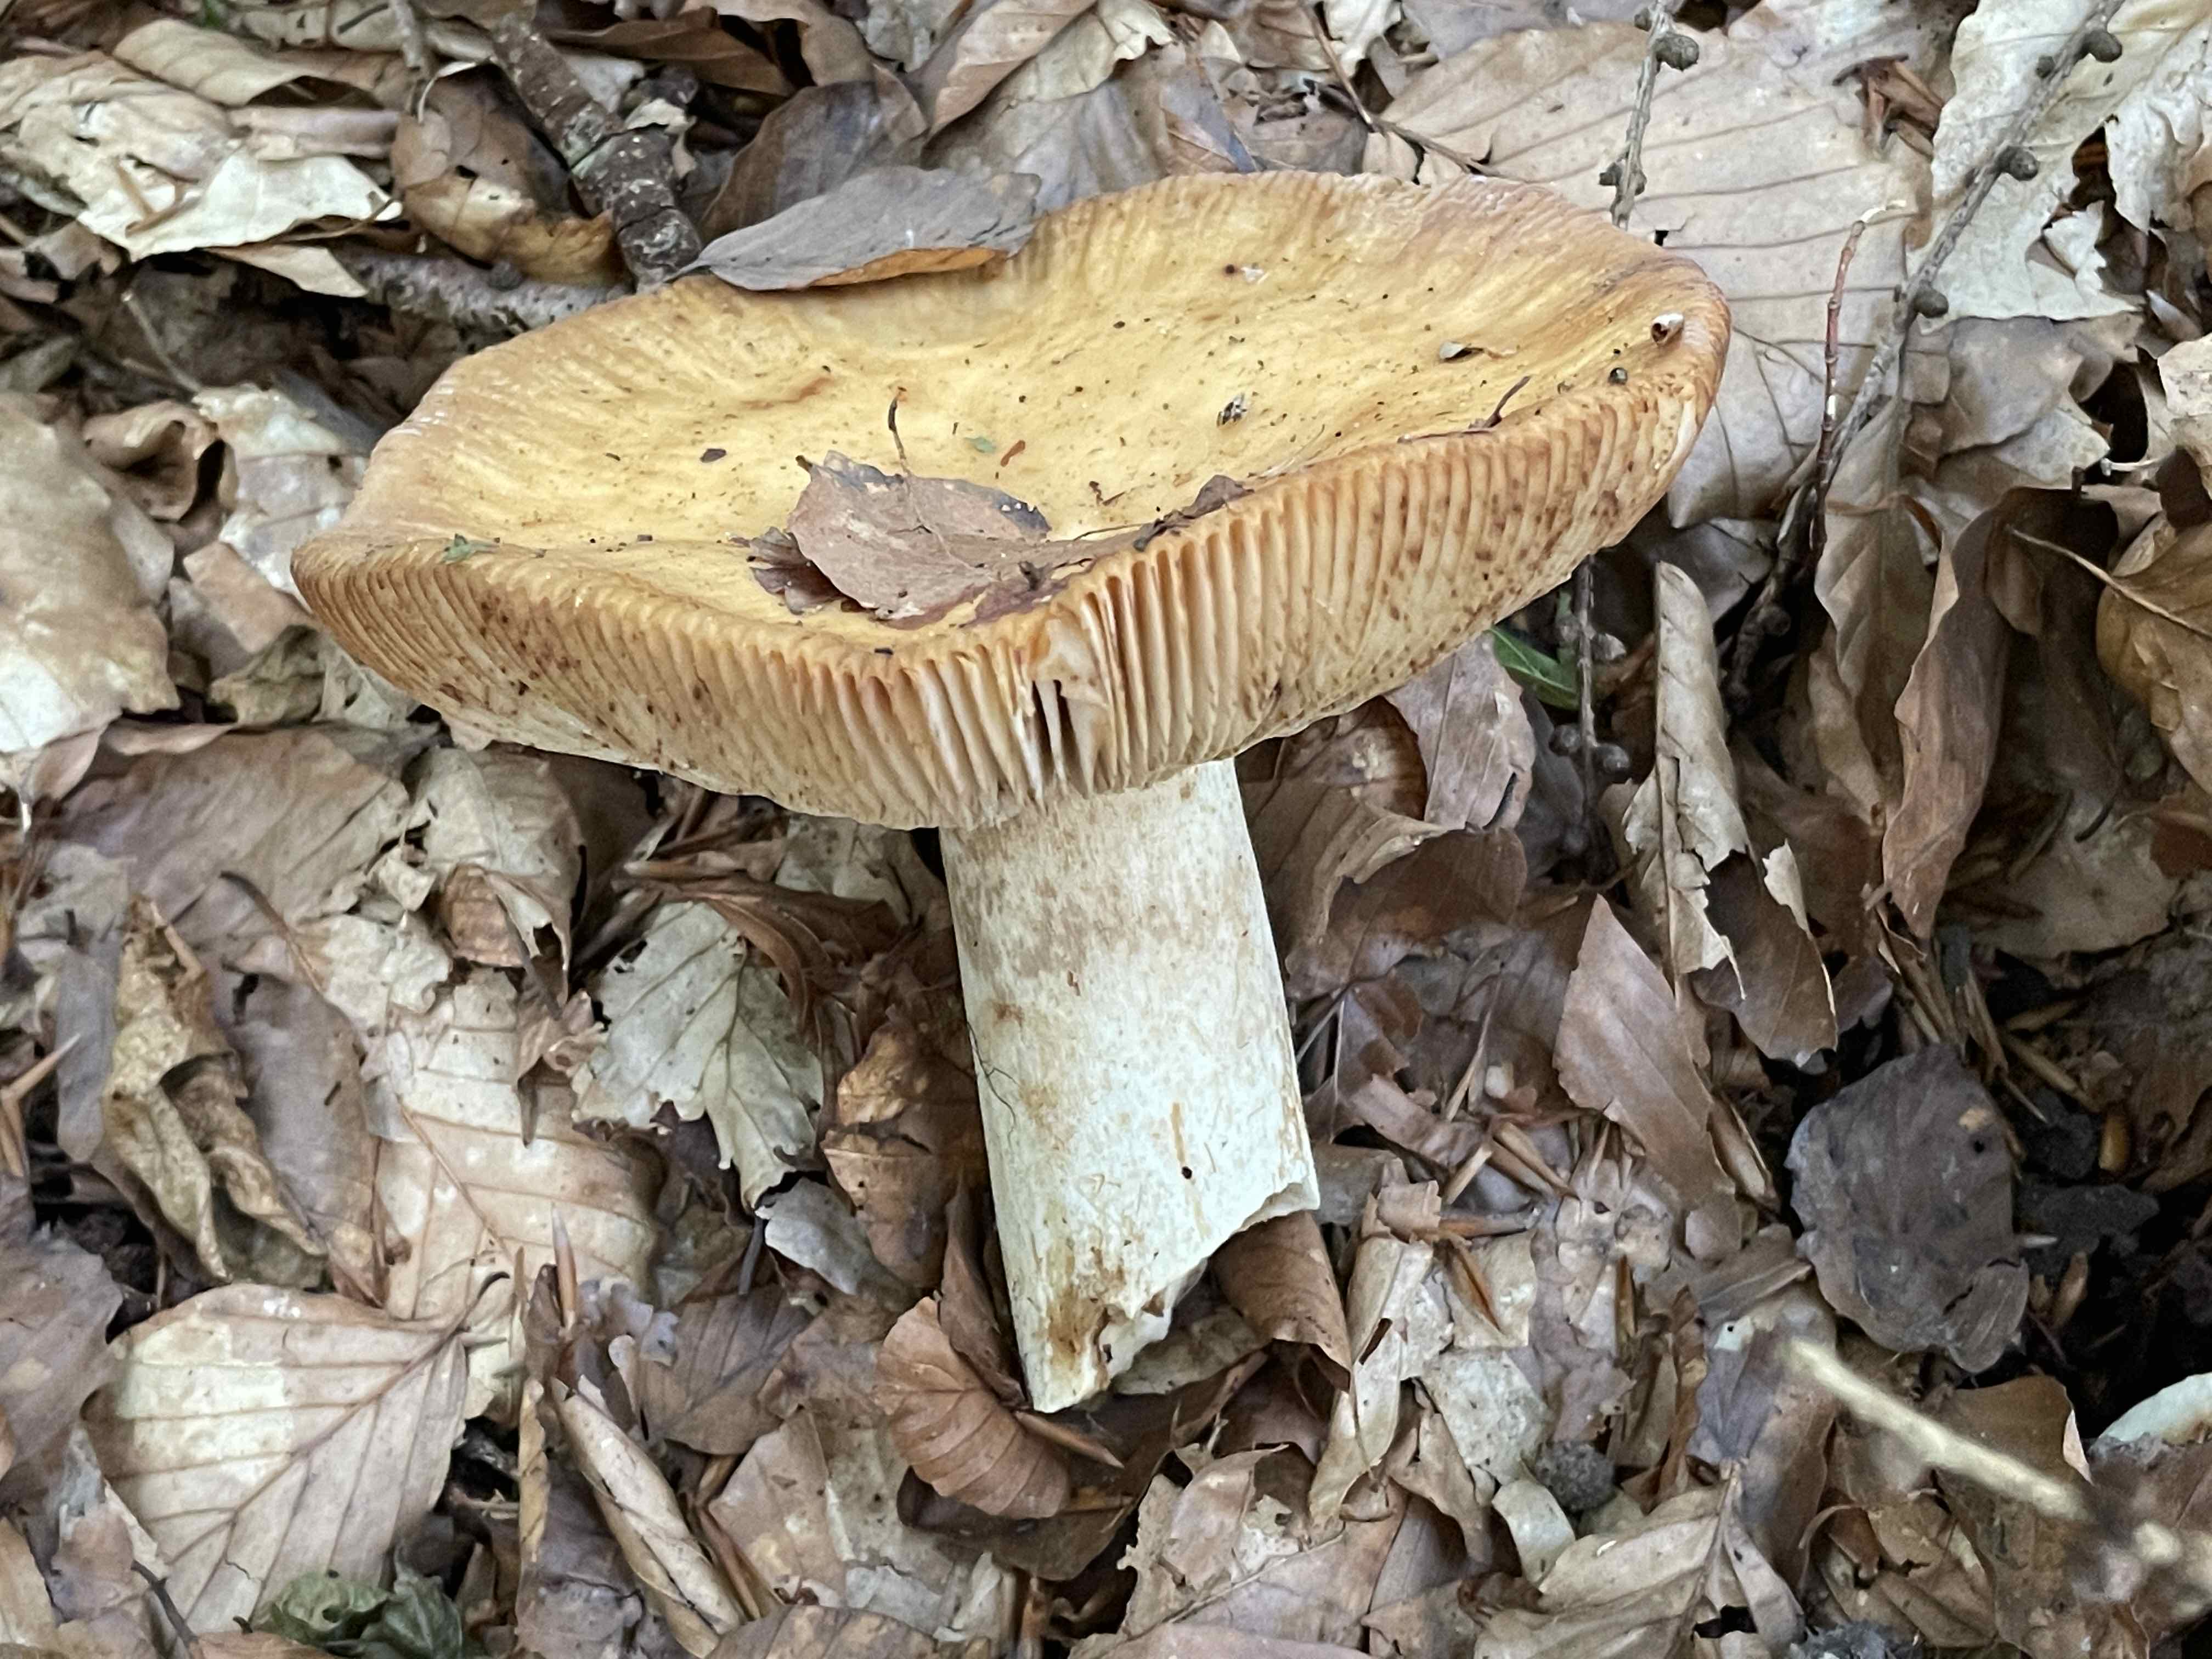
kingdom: Fungi
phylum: Basidiomycota
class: Agaricomycetes
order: Russulales
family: Russulaceae
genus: Russula
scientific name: Russula grata
